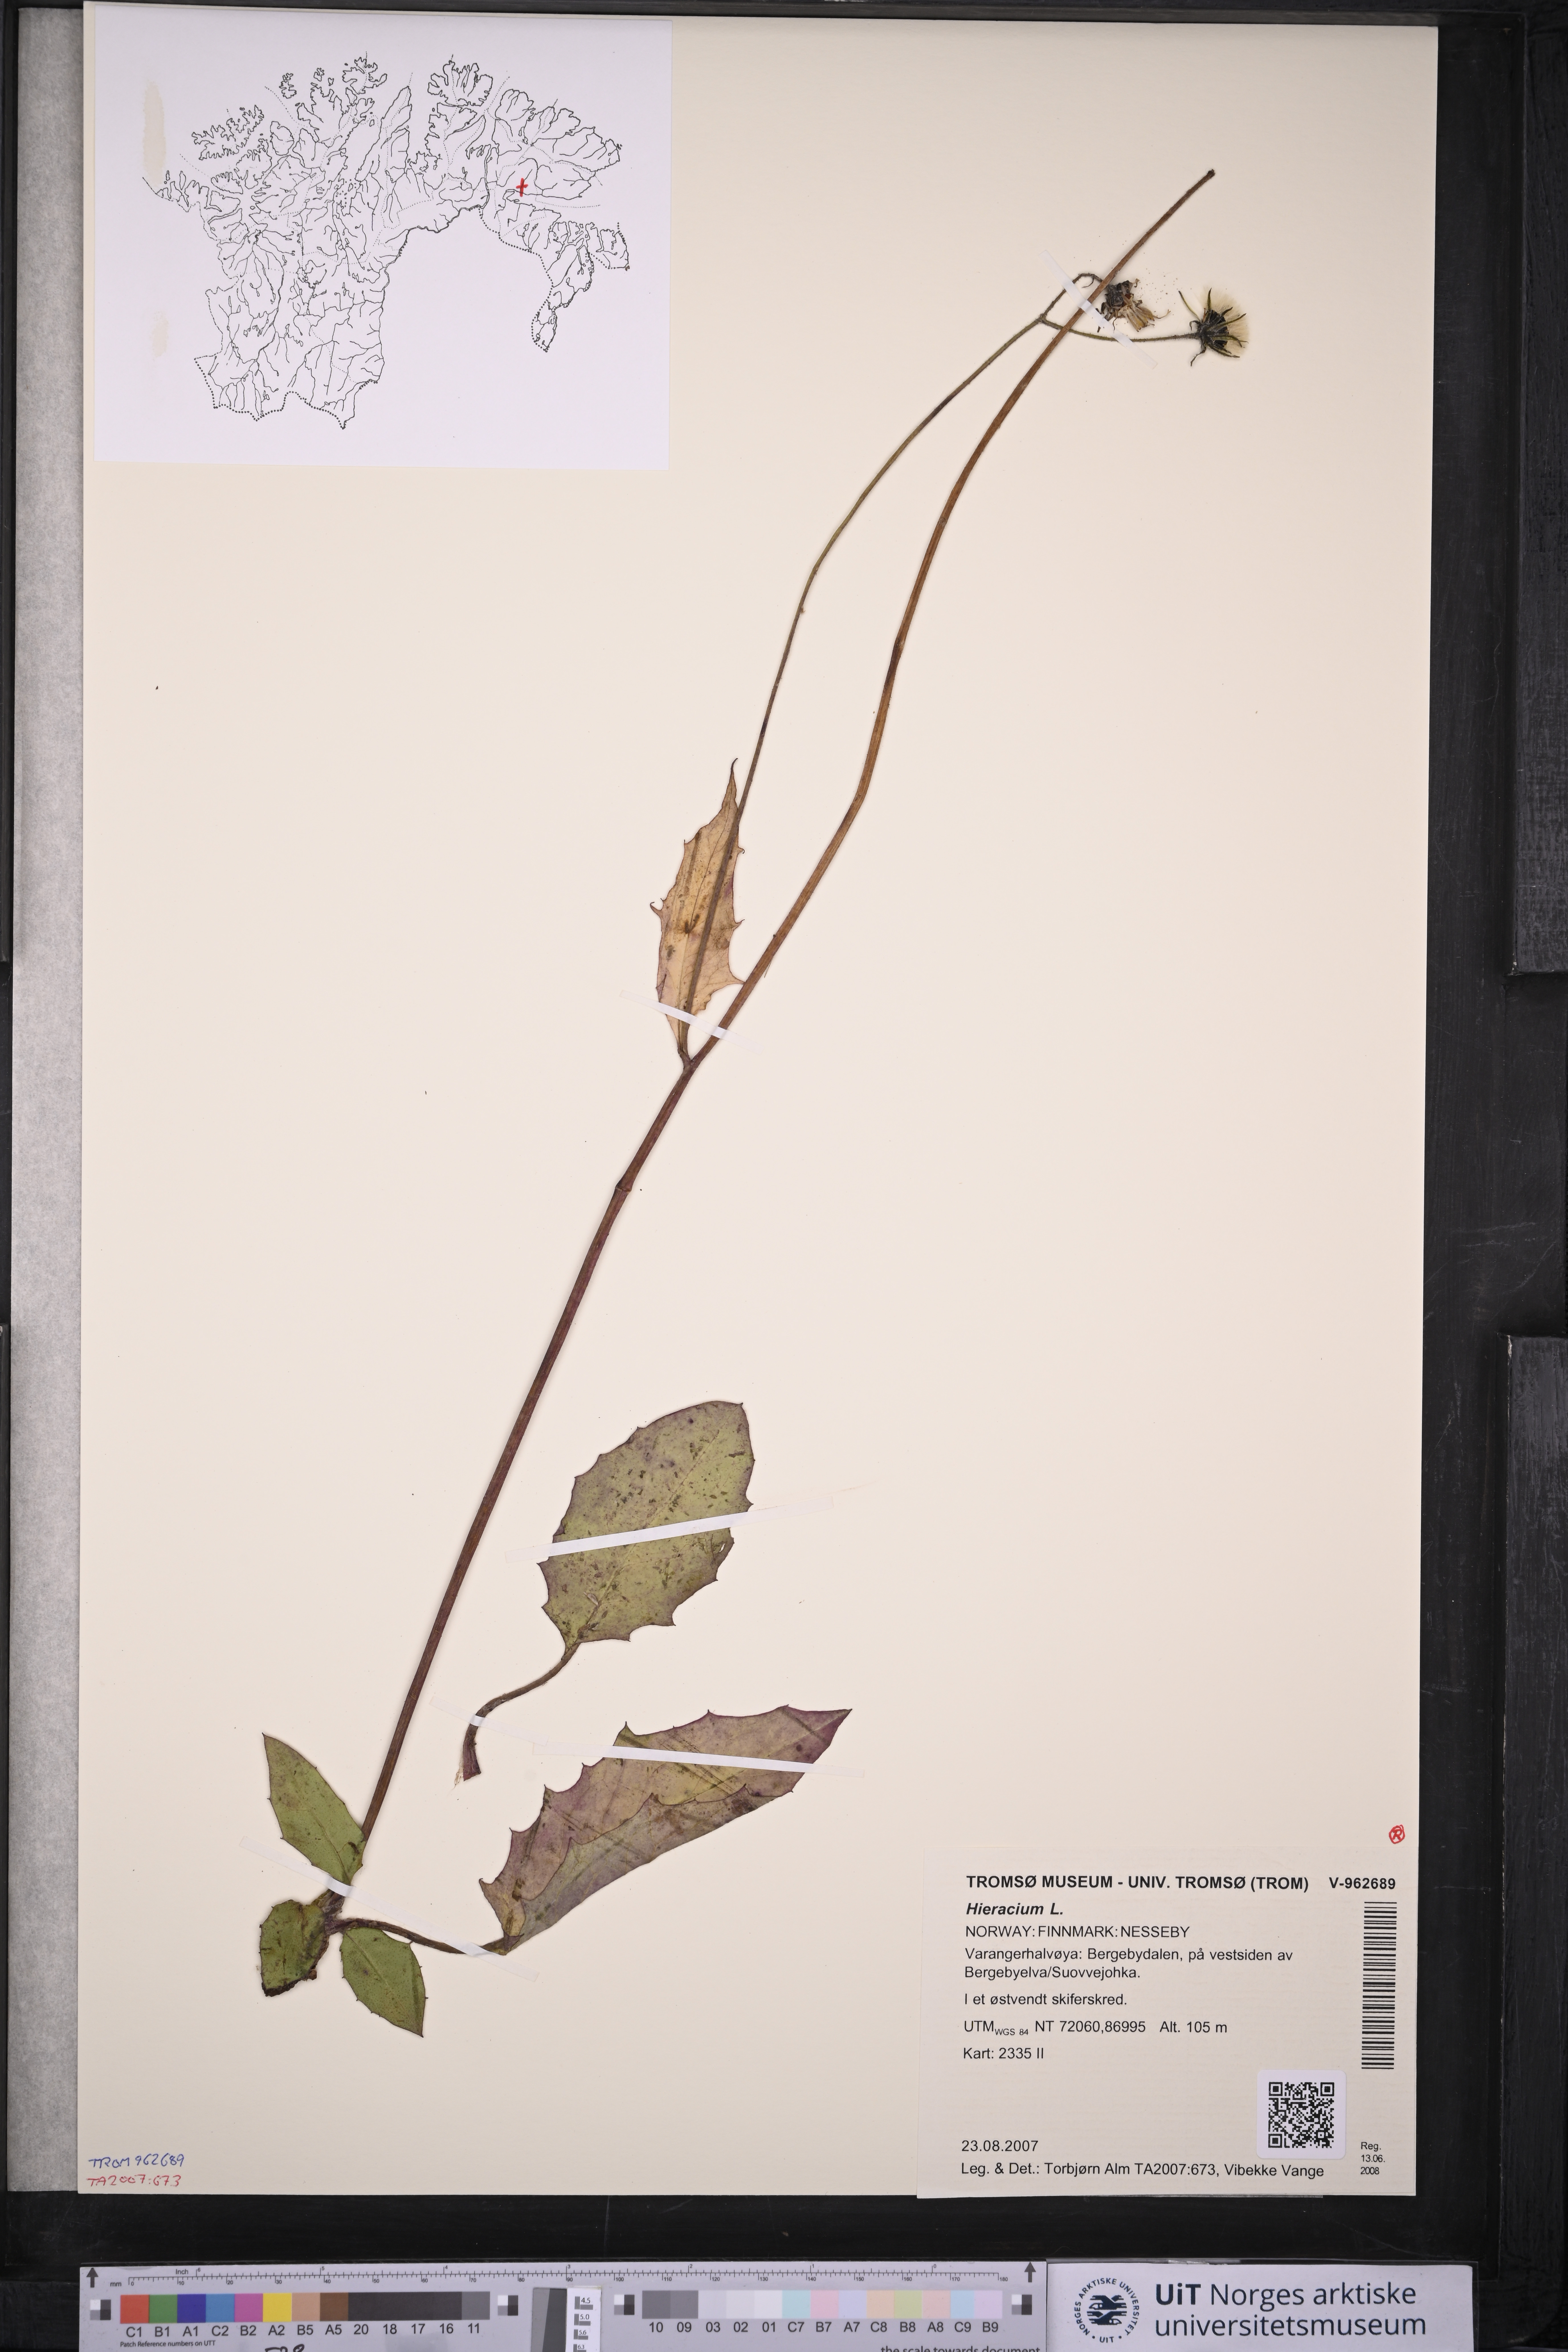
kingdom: Plantae
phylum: Tracheophyta
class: Magnoliopsida
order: Asterales
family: Asteraceae
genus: Hieracium
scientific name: Hieracium
